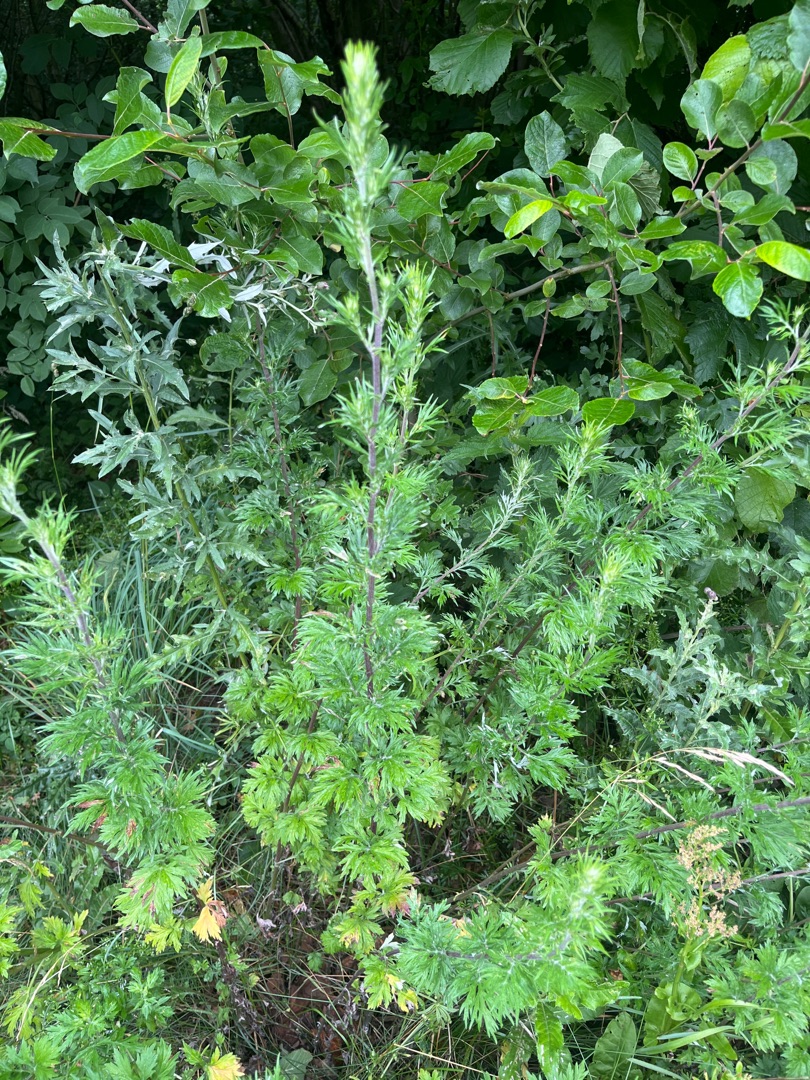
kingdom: Plantae
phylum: Tracheophyta
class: Magnoliopsida
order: Asterales
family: Asteraceae
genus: Artemisia
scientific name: Artemisia vulgaris
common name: Grå-bynke
